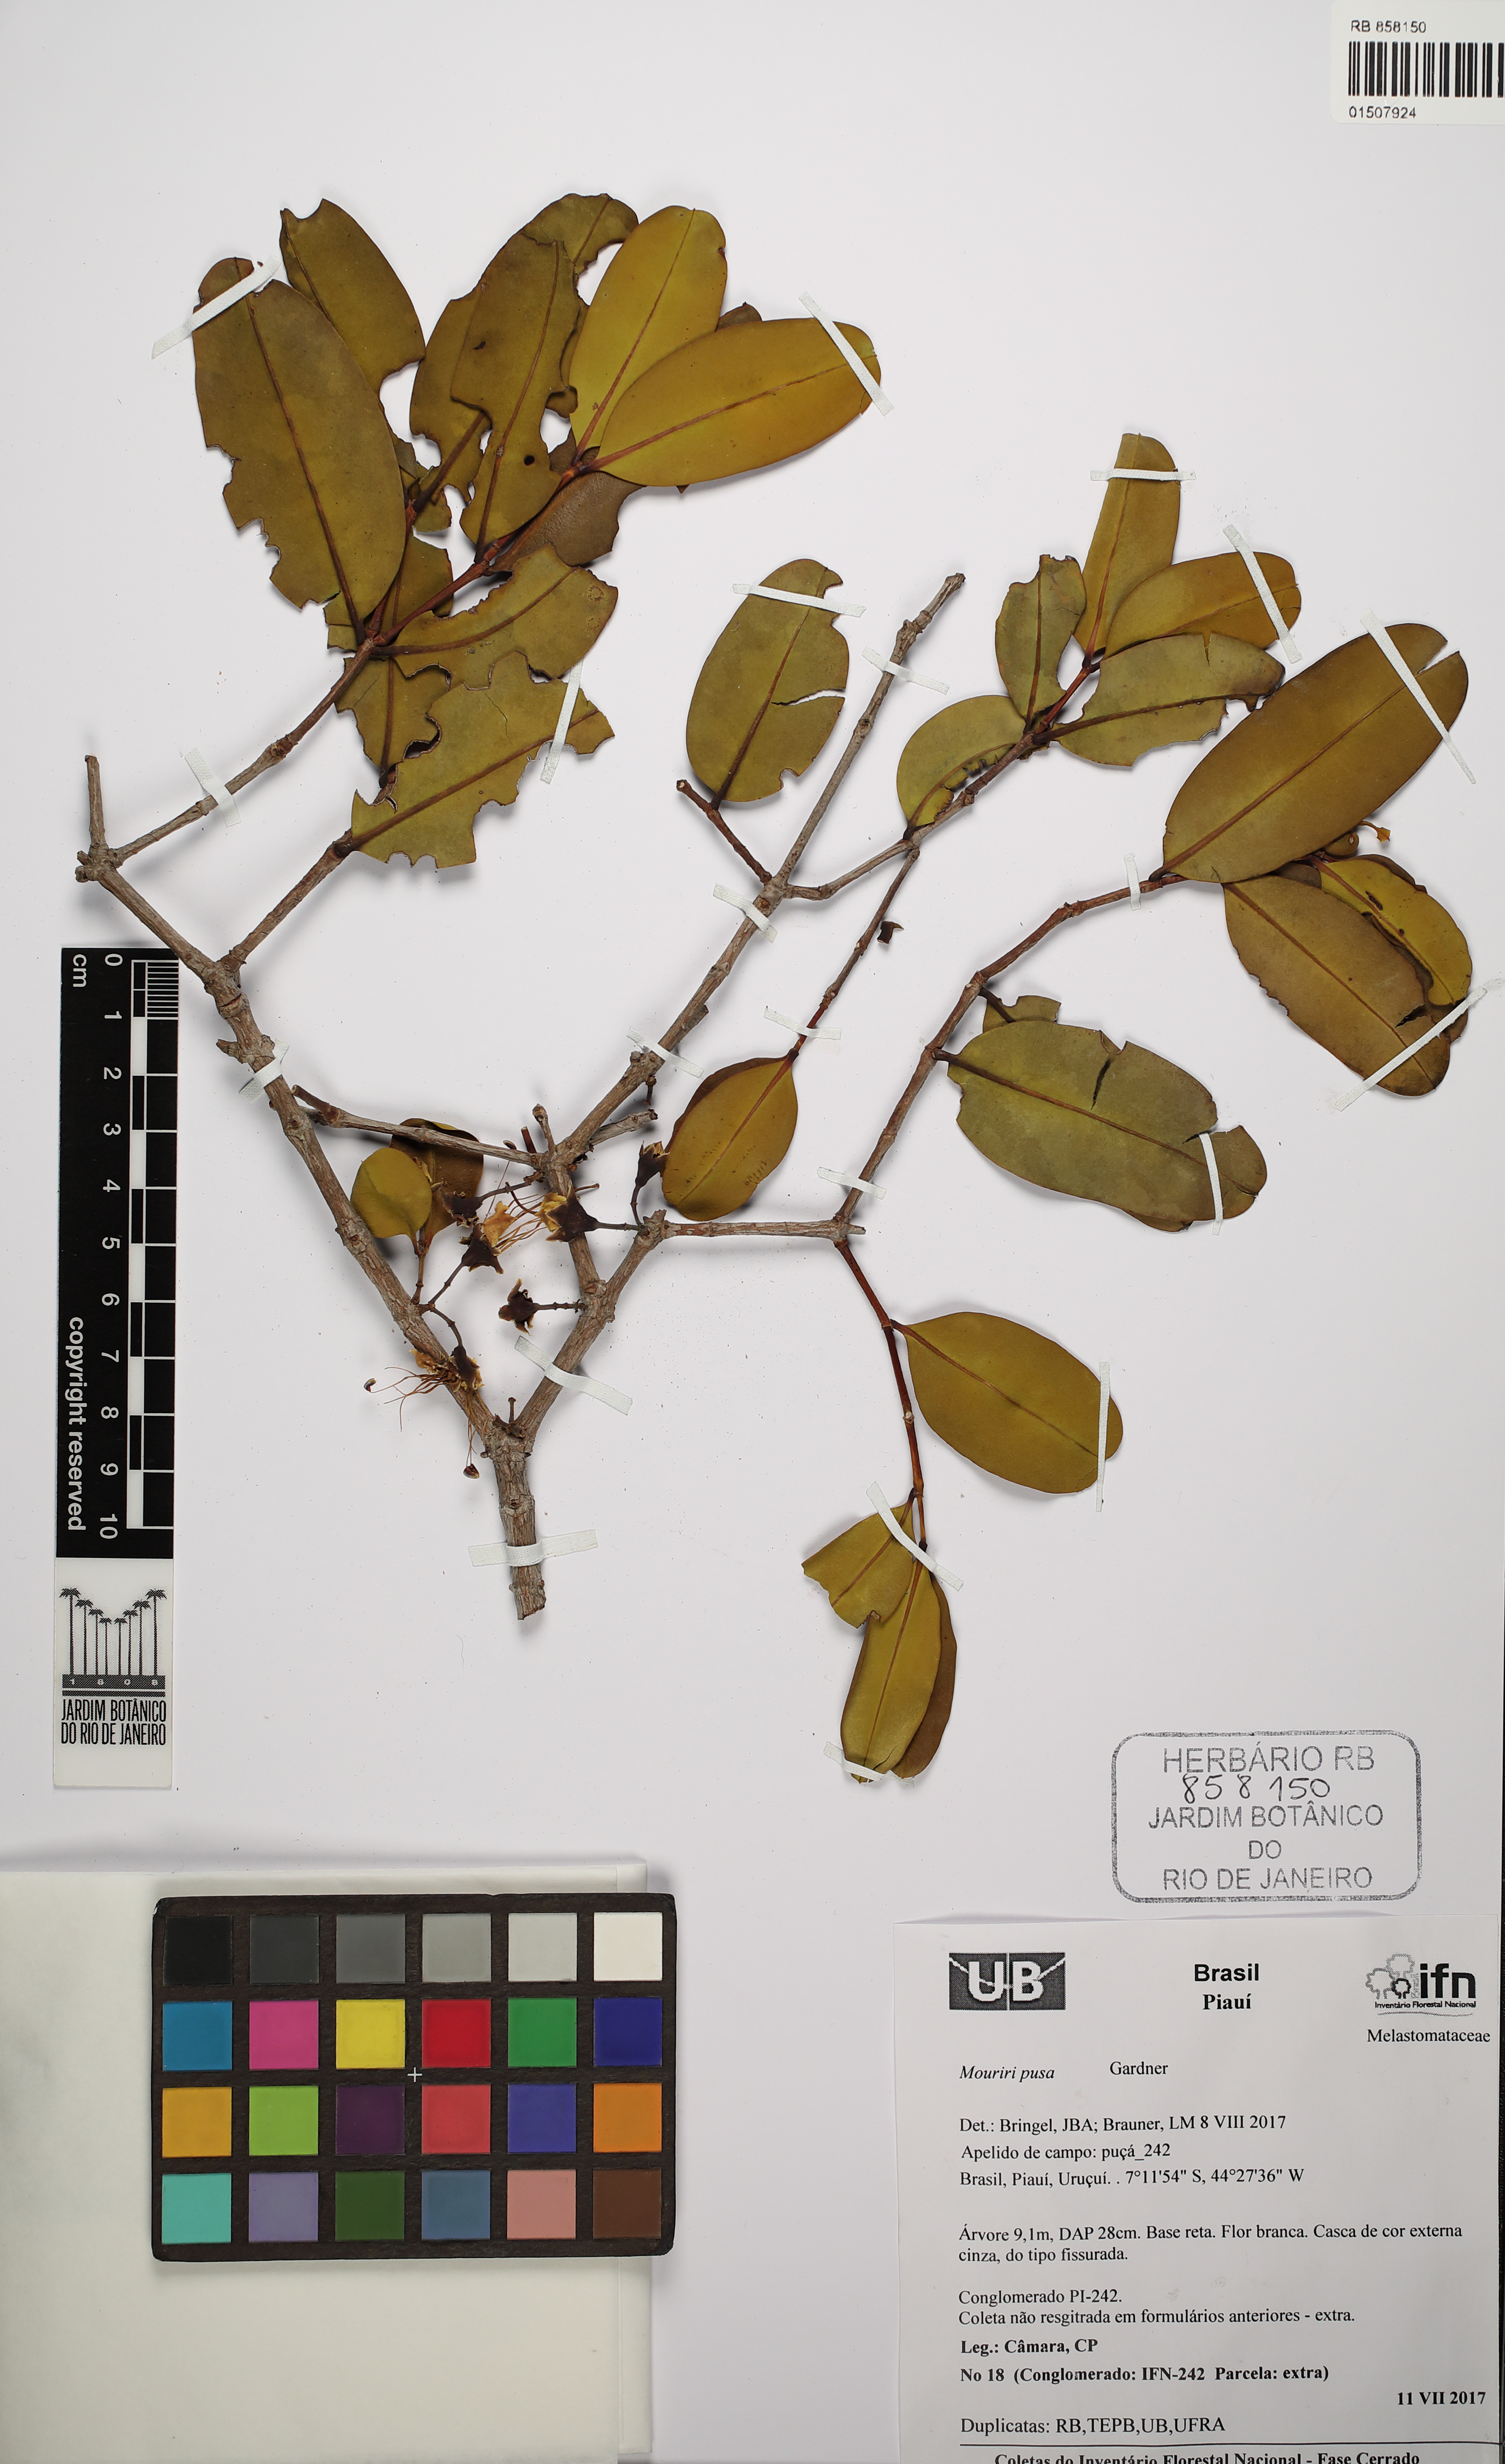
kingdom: Plantae
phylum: Tracheophyta
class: Magnoliopsida
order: Myrtales
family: Melastomataceae
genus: Mouriri
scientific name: Mouriri pusa
